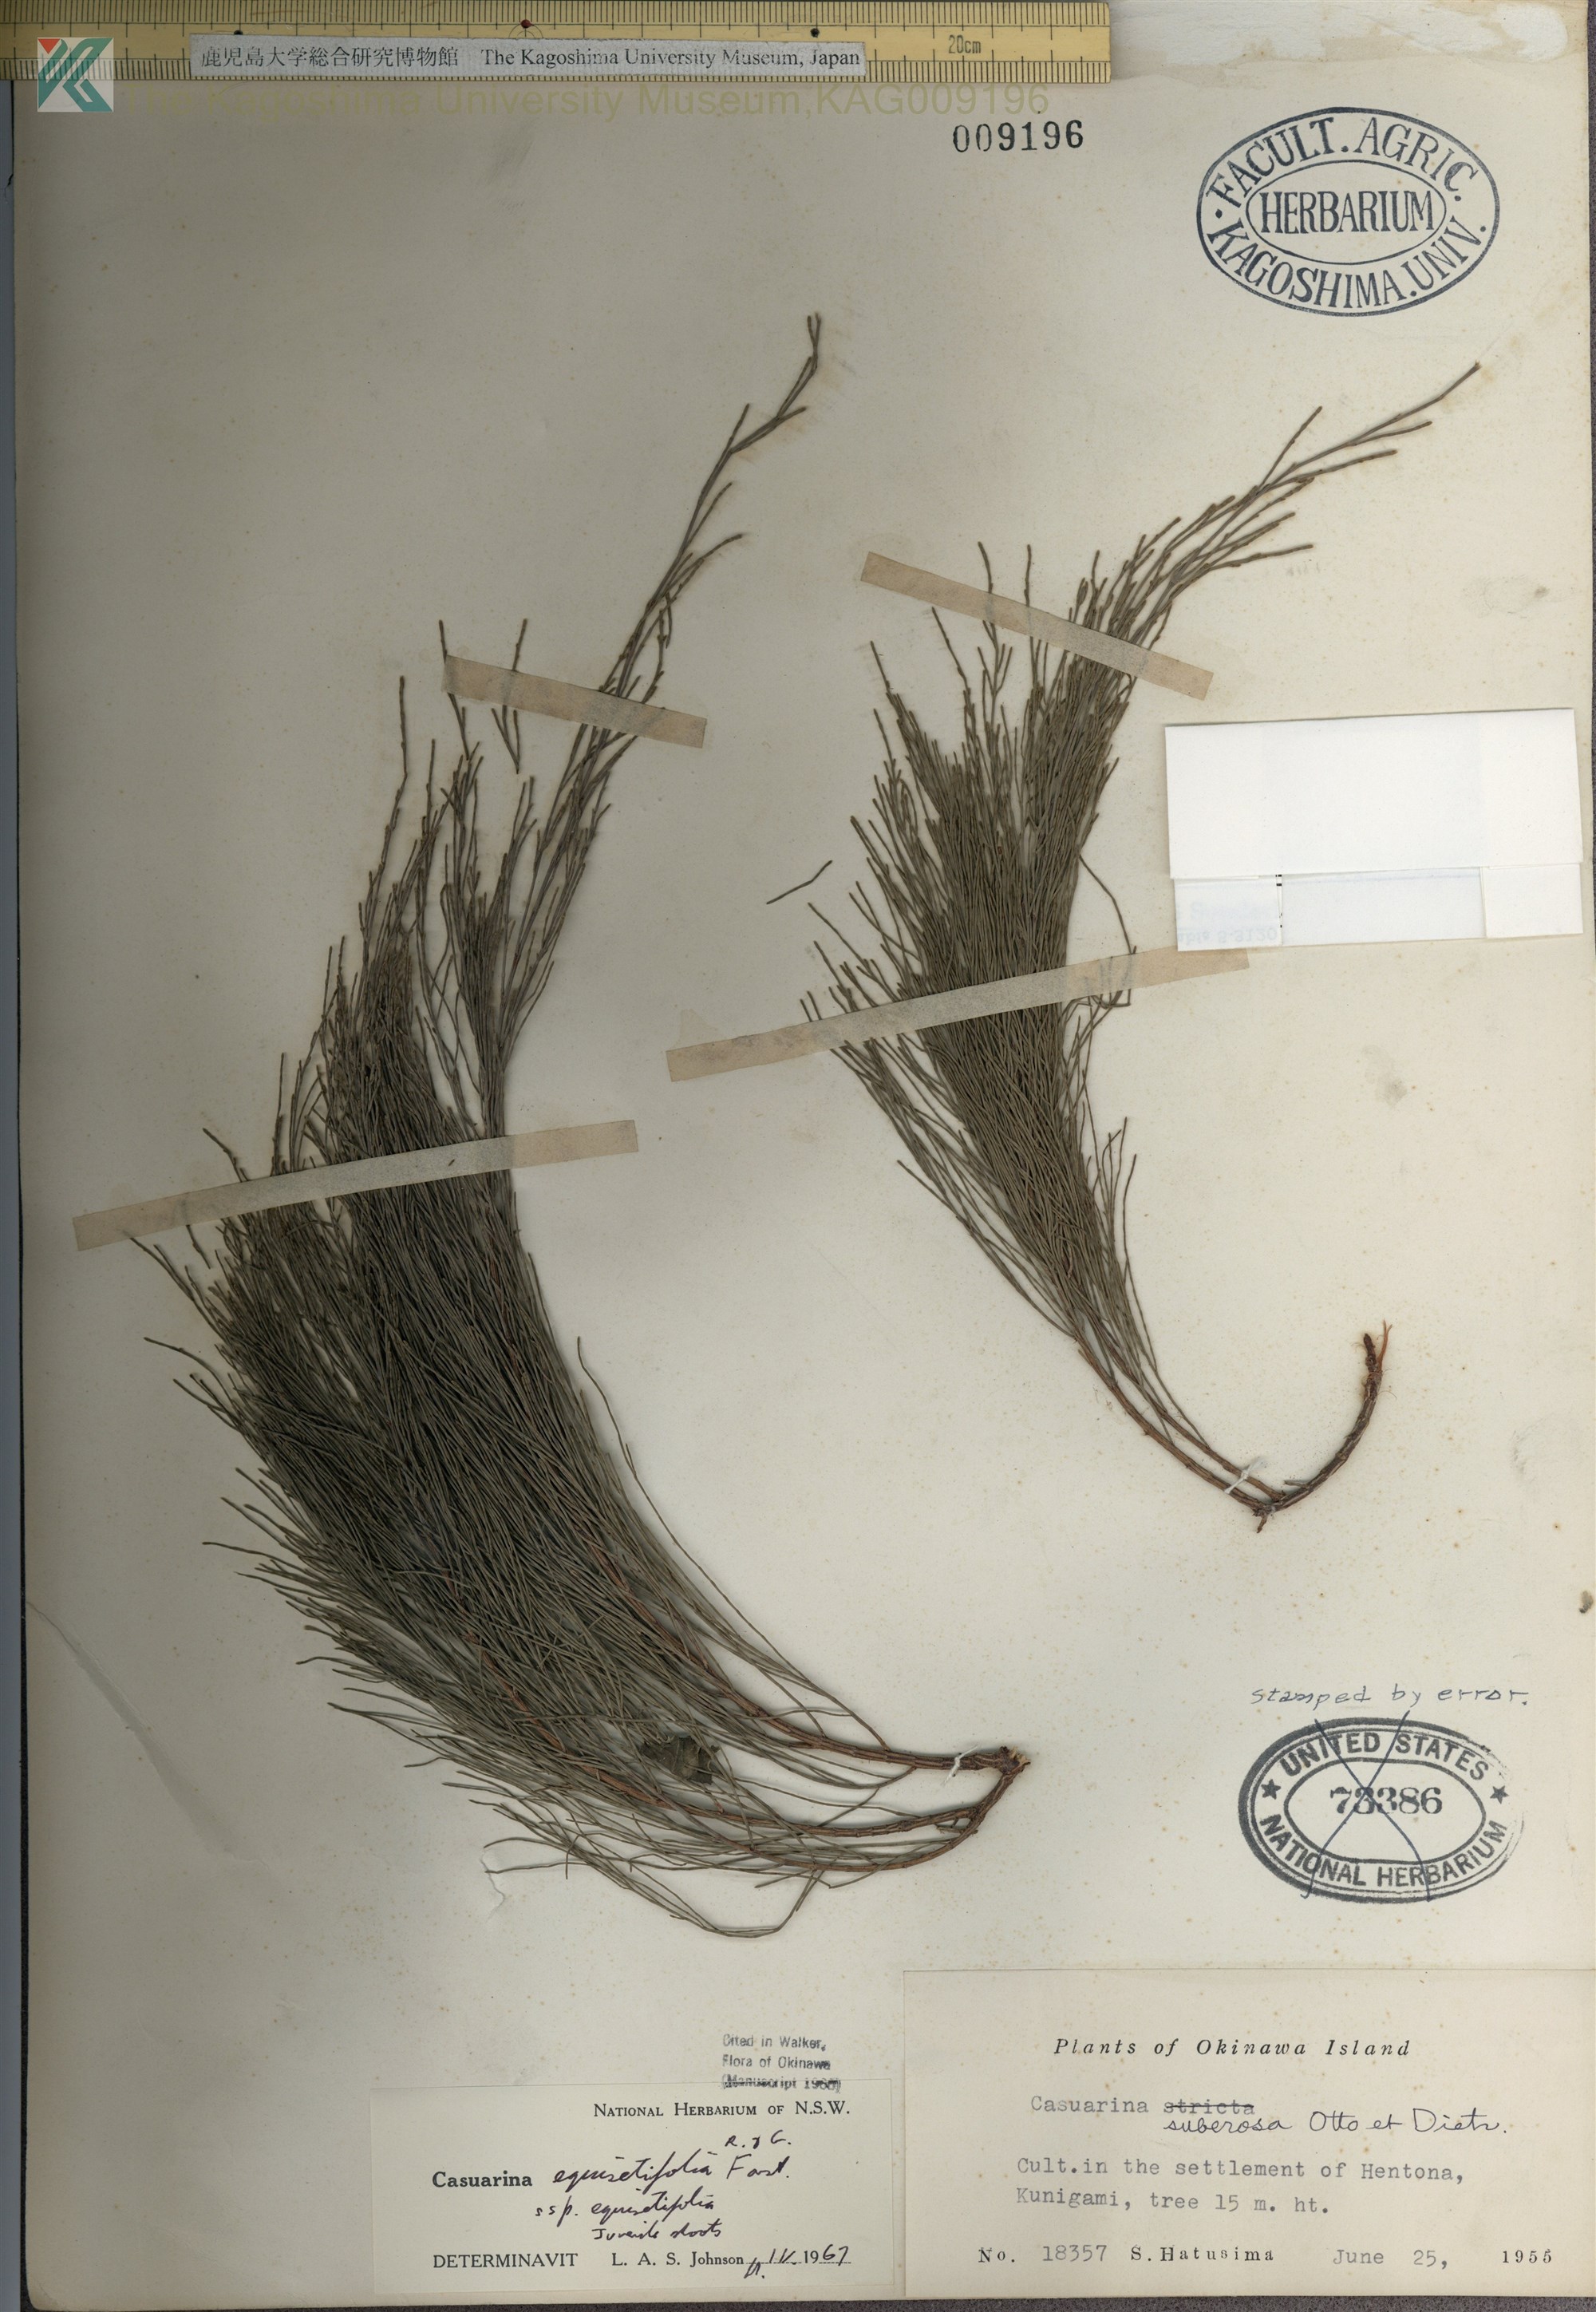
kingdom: Plantae
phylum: Tracheophyta
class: Magnoliopsida
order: Fagales
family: Casuarinaceae
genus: Casuarina
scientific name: Casuarina equisetifolia
